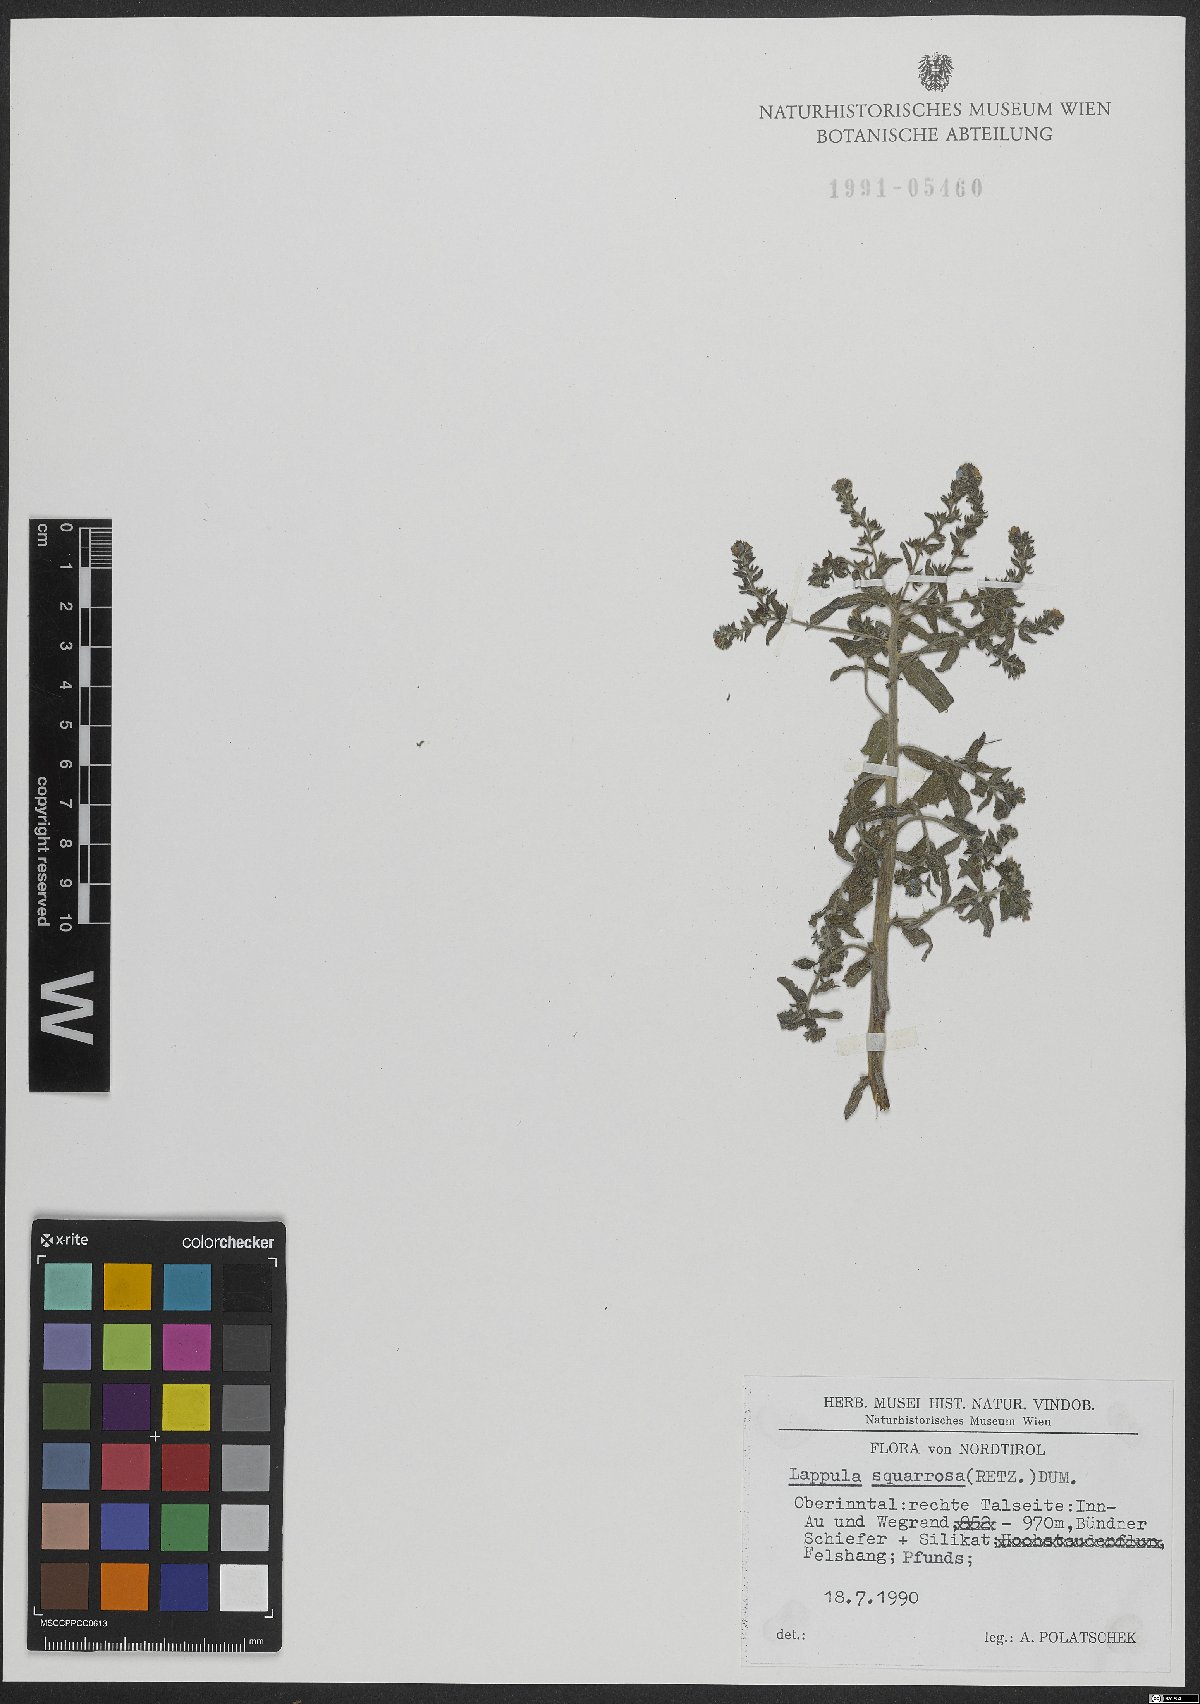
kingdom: Plantae
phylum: Tracheophyta
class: Magnoliopsida
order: Boraginales
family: Boraginaceae
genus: Lappula
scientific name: Lappula squarrosa
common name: European stickseed
